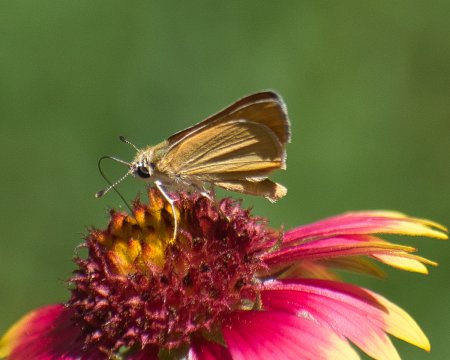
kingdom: Animalia
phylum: Arthropoda
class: Insecta
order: Lepidoptera
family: Hesperiidae
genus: Copaeodes
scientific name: Copaeodes aurantiaca
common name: Orange Skipperling
